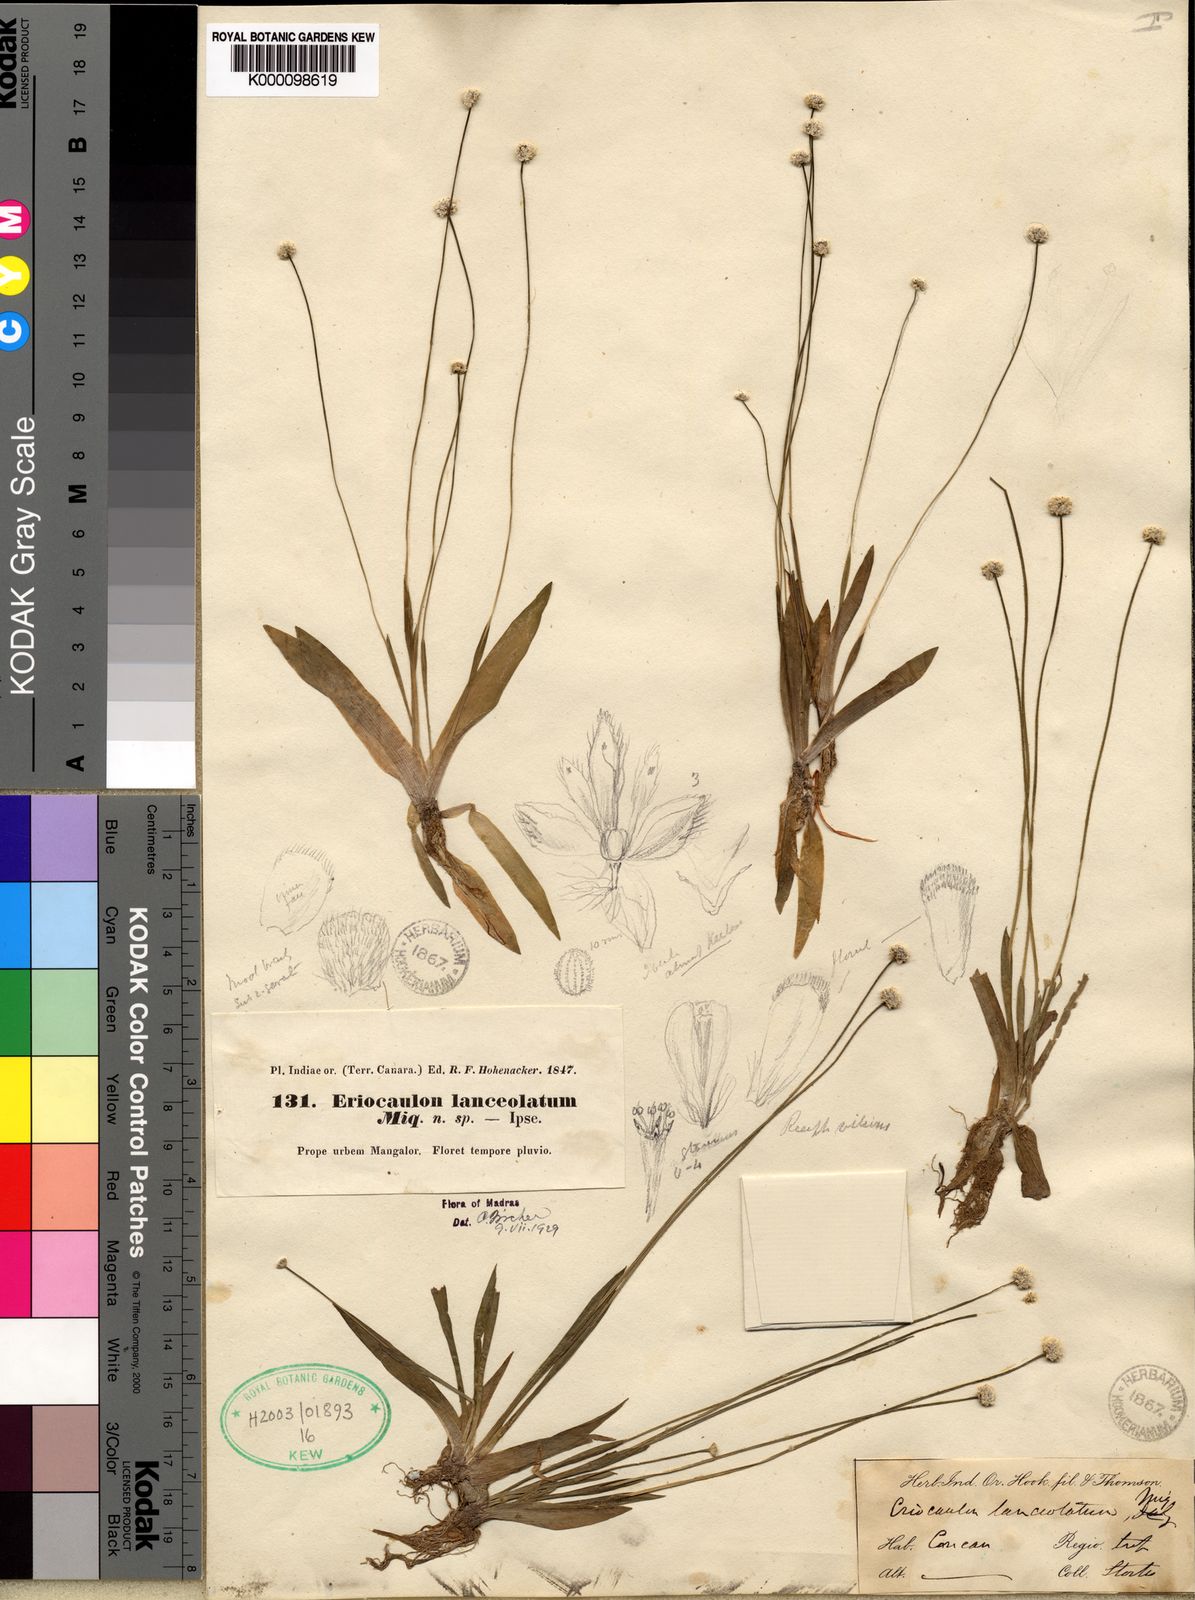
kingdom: Plantae
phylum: Tracheophyta
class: Liliopsida
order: Poales
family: Eriocaulaceae
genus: Eriocaulon
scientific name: Eriocaulon
